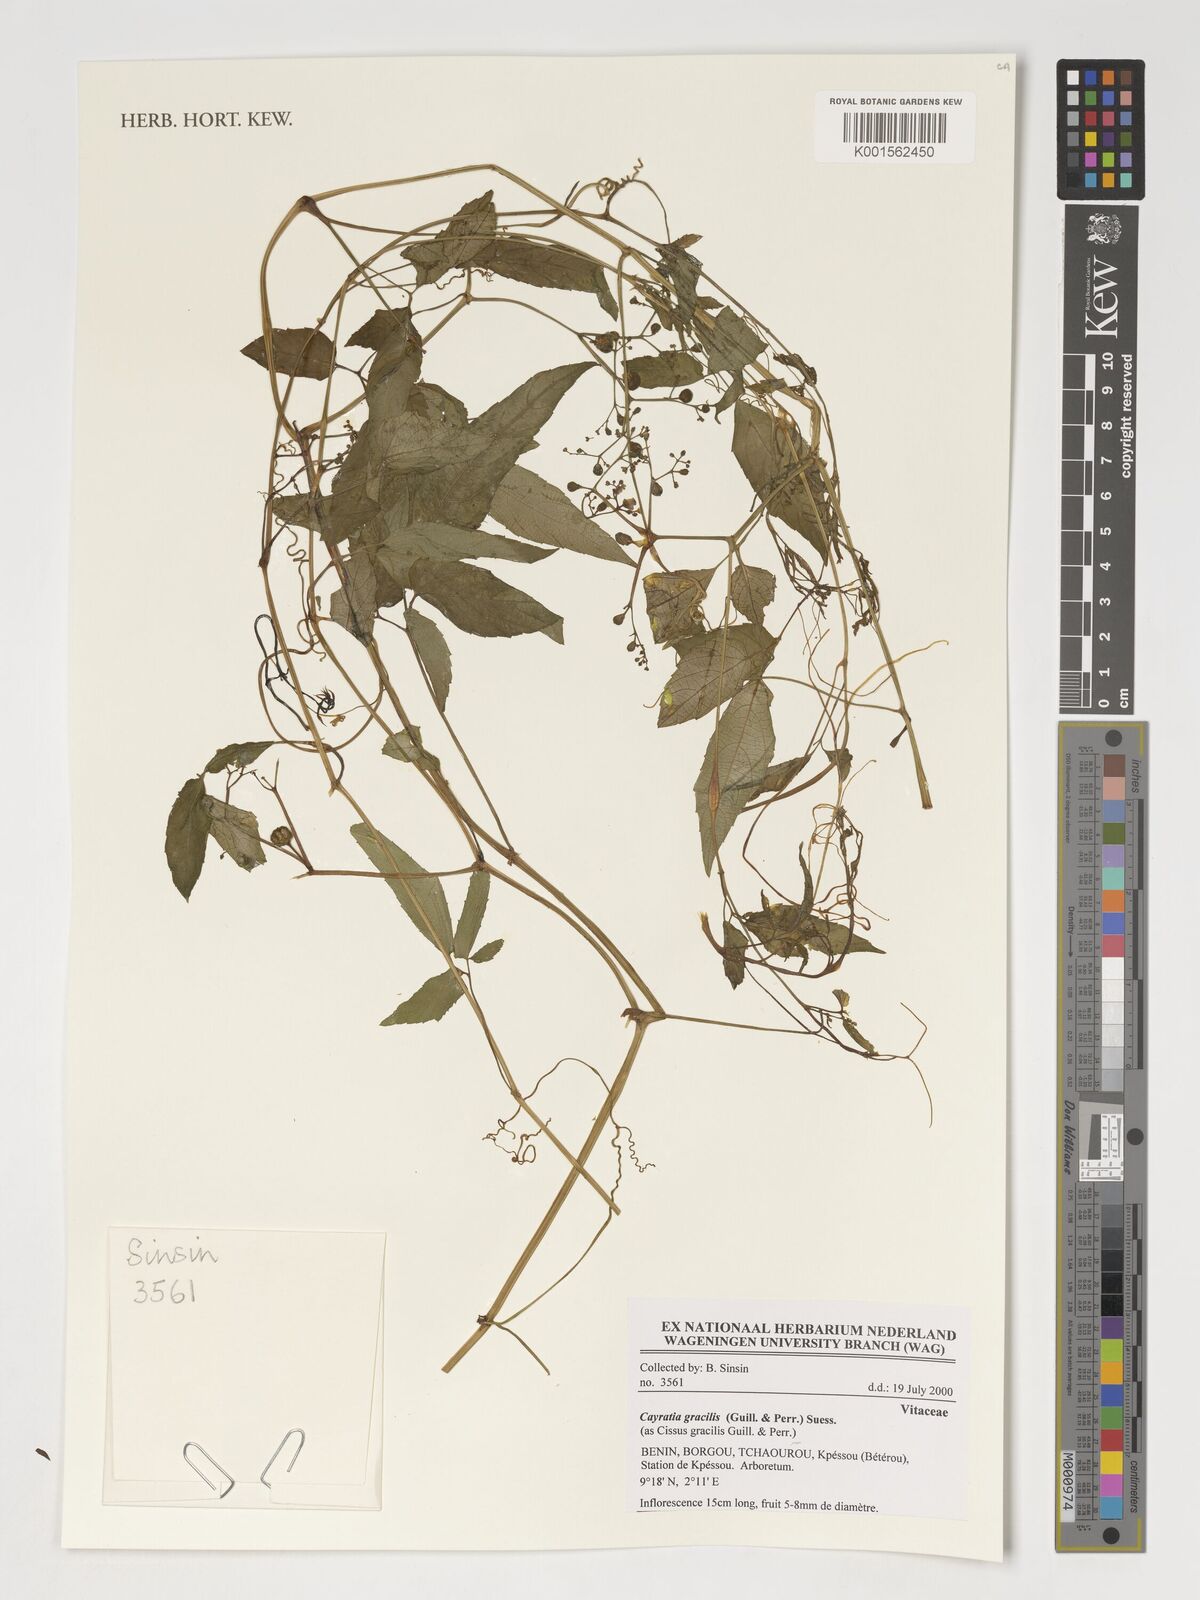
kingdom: Plantae
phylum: Tracheophyta
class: Magnoliopsida
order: Vitales
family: Vitaceae
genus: Afrocayratia
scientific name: Afrocayratia gracilis
